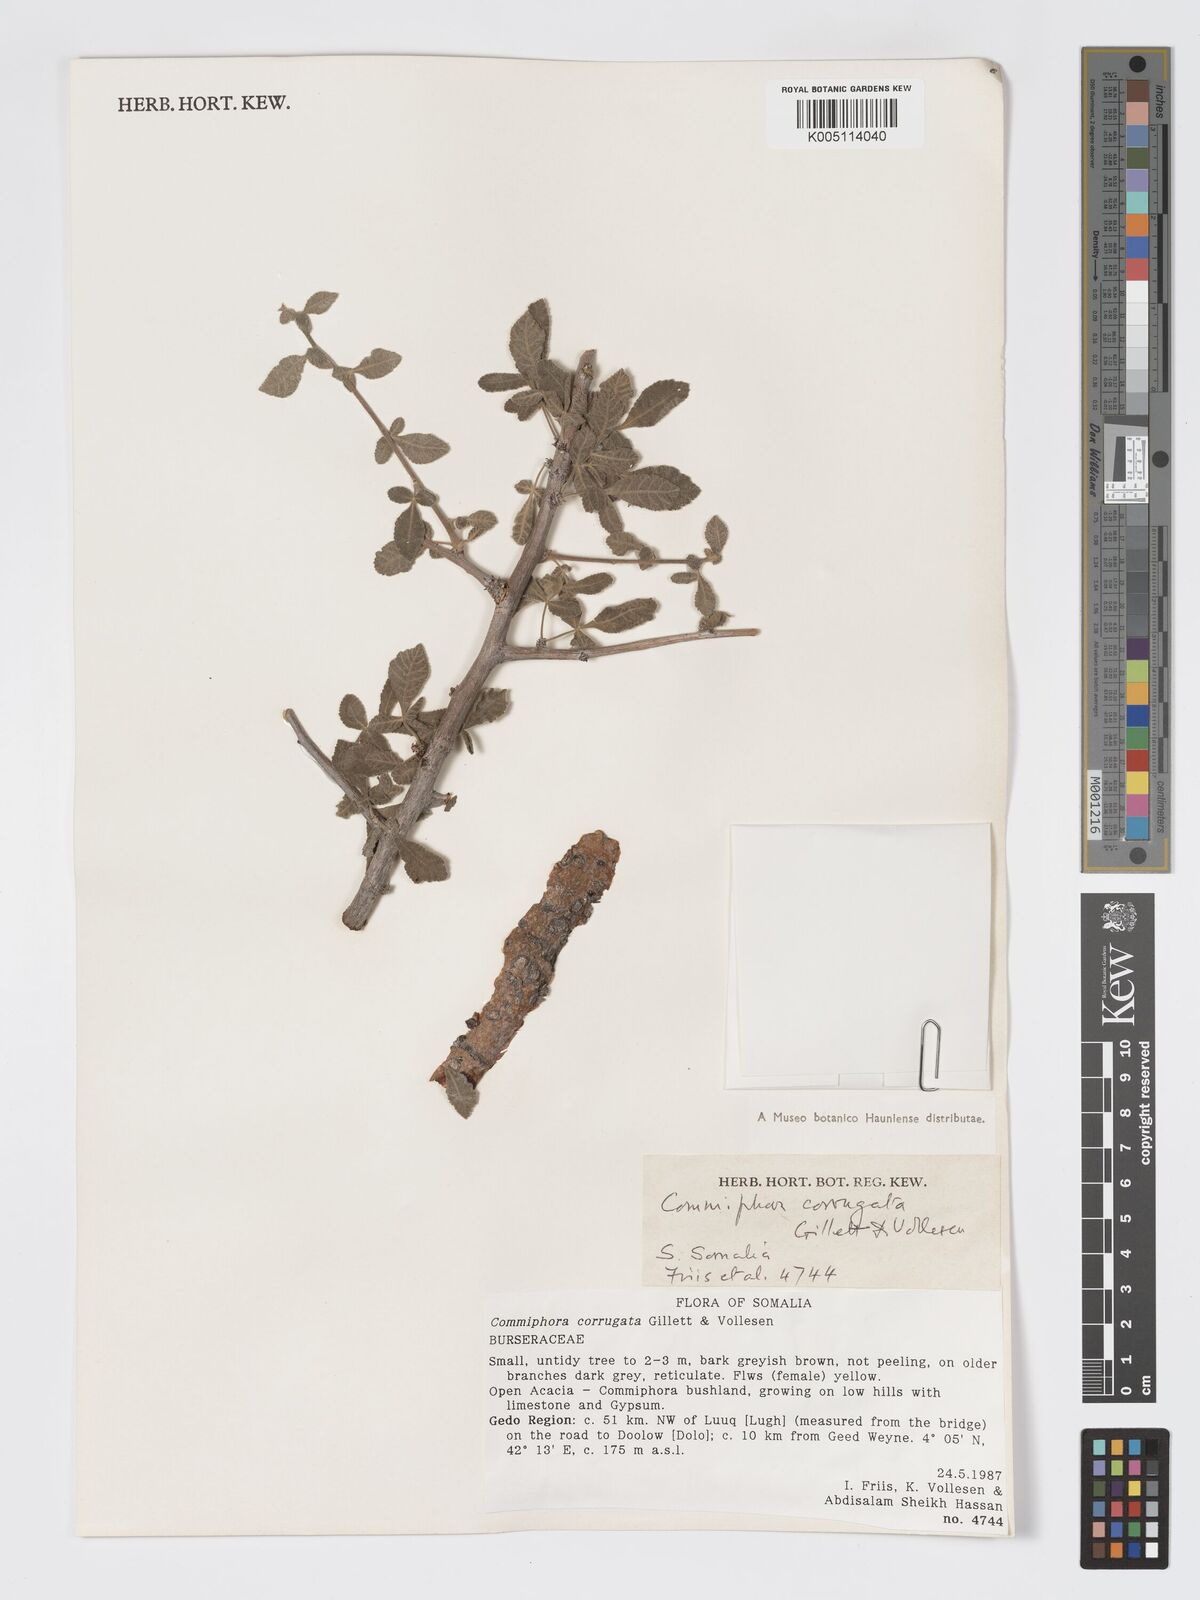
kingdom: Plantae
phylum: Tracheophyta
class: Magnoliopsida
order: Sapindales
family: Burseraceae
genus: Commiphora
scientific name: Commiphora corrugata
